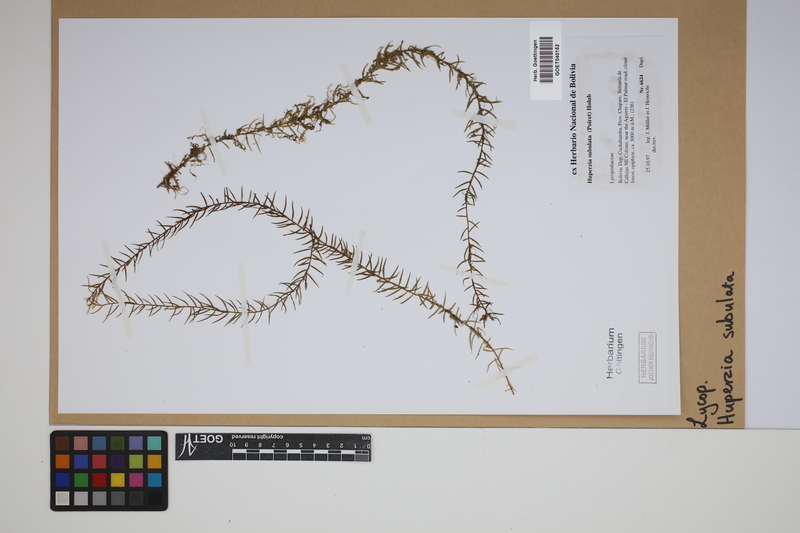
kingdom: Plantae
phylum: Tracheophyta
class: Lycopodiopsida
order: Lycopodiales
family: Lycopodiaceae
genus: Phlegmariurus
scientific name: Phlegmariurus subulatus
